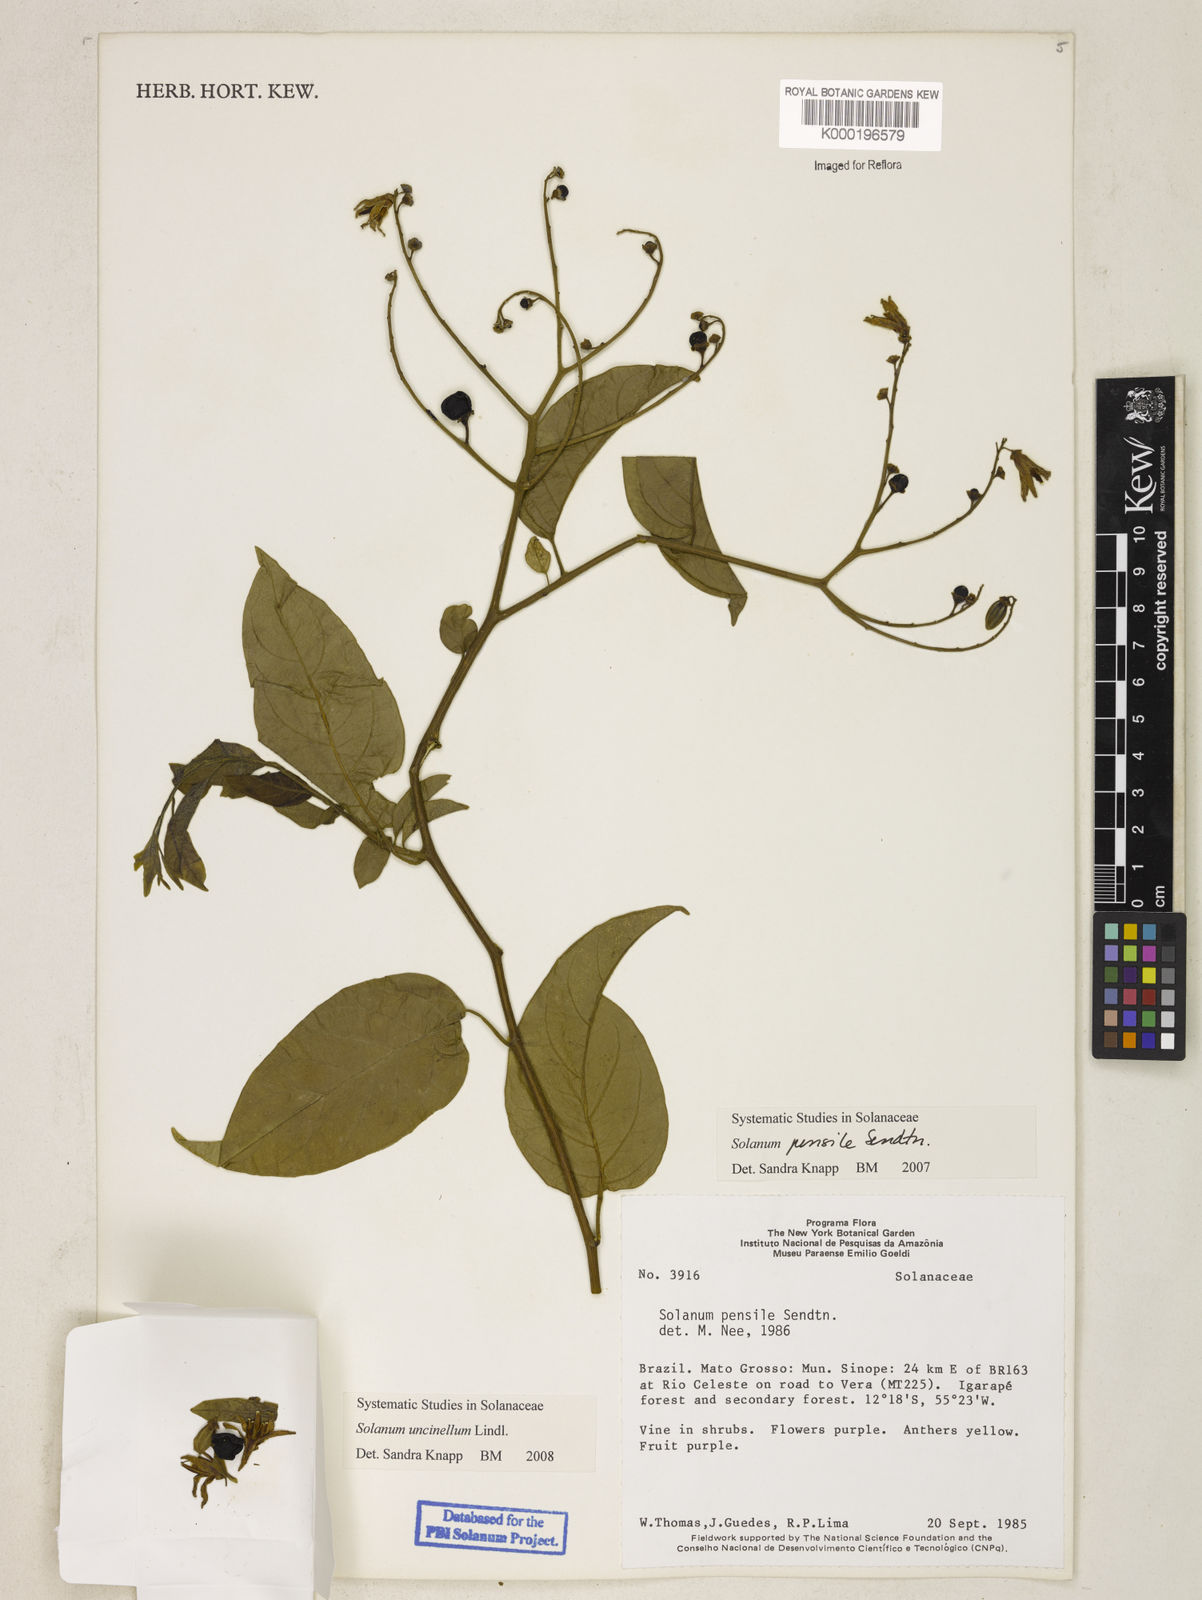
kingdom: Plantae
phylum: Tracheophyta
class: Magnoliopsida
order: Solanales
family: Solanaceae
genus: Solanum
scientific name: Solanum uncinellum
